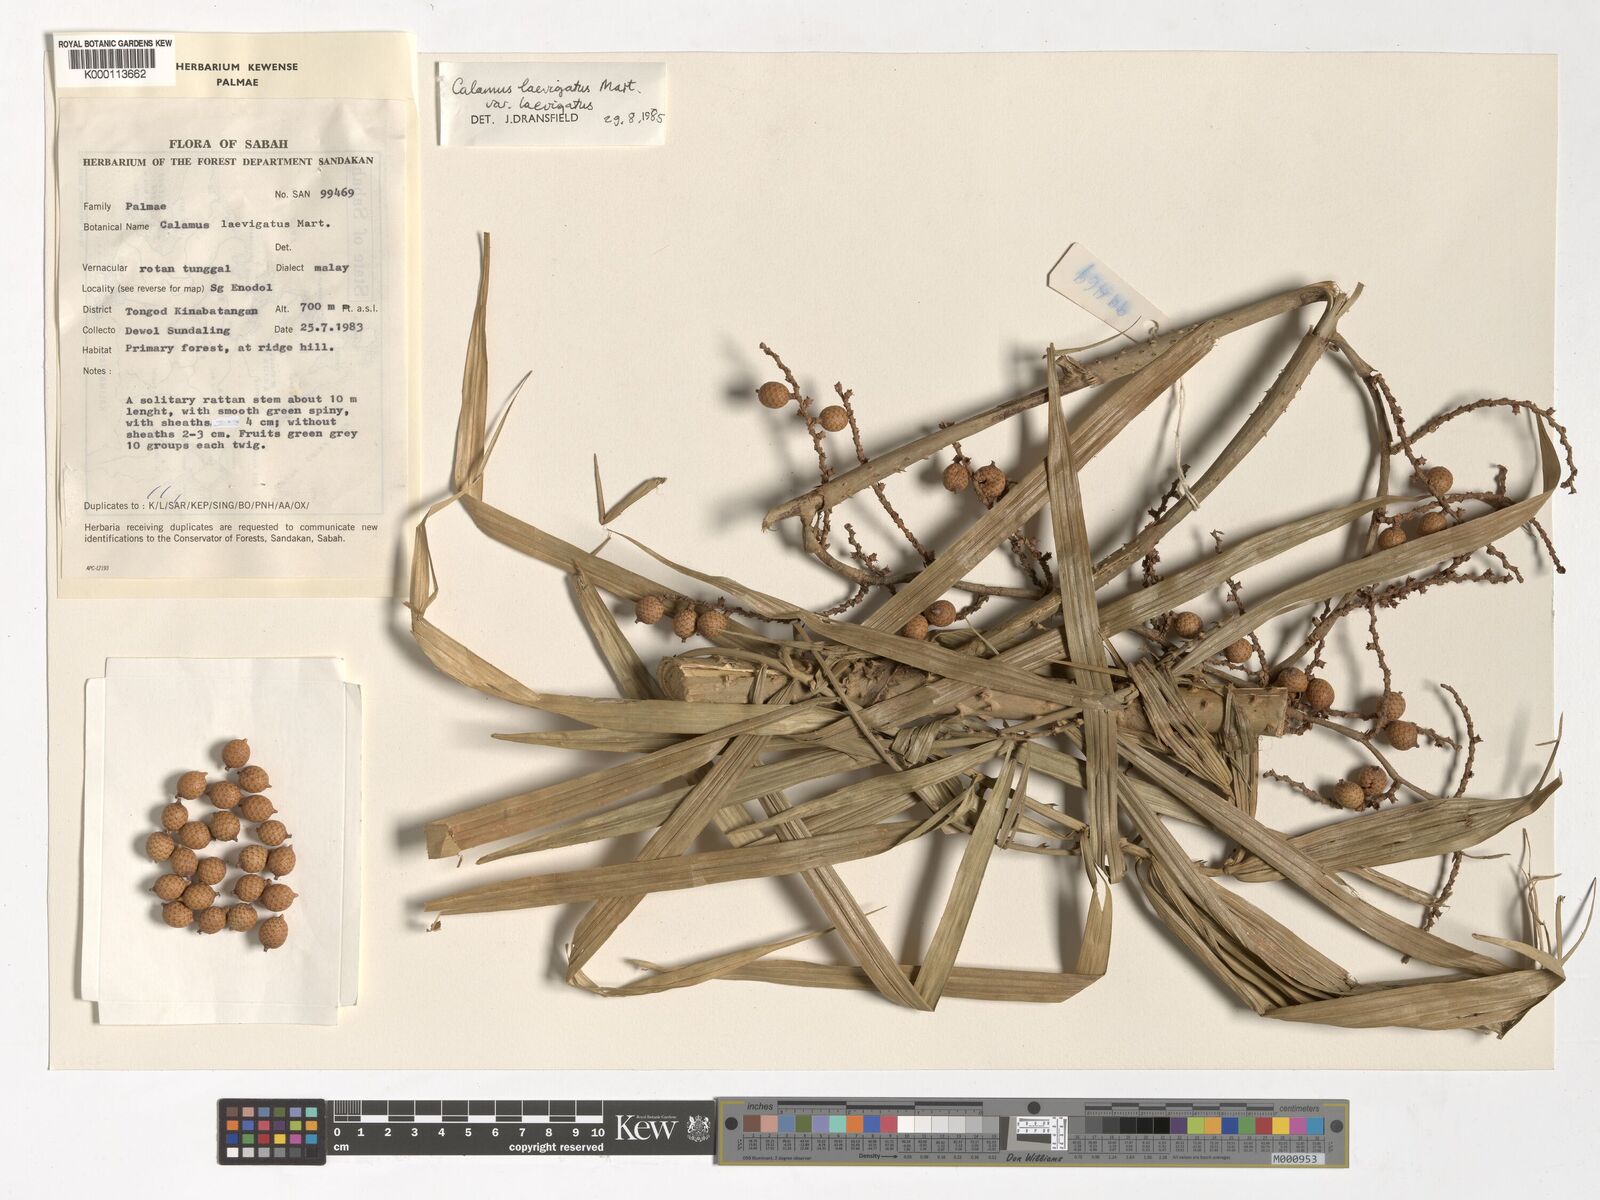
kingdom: Plantae
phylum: Tracheophyta
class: Liliopsida
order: Arecales
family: Arecaceae
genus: Calamus
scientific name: Calamus
